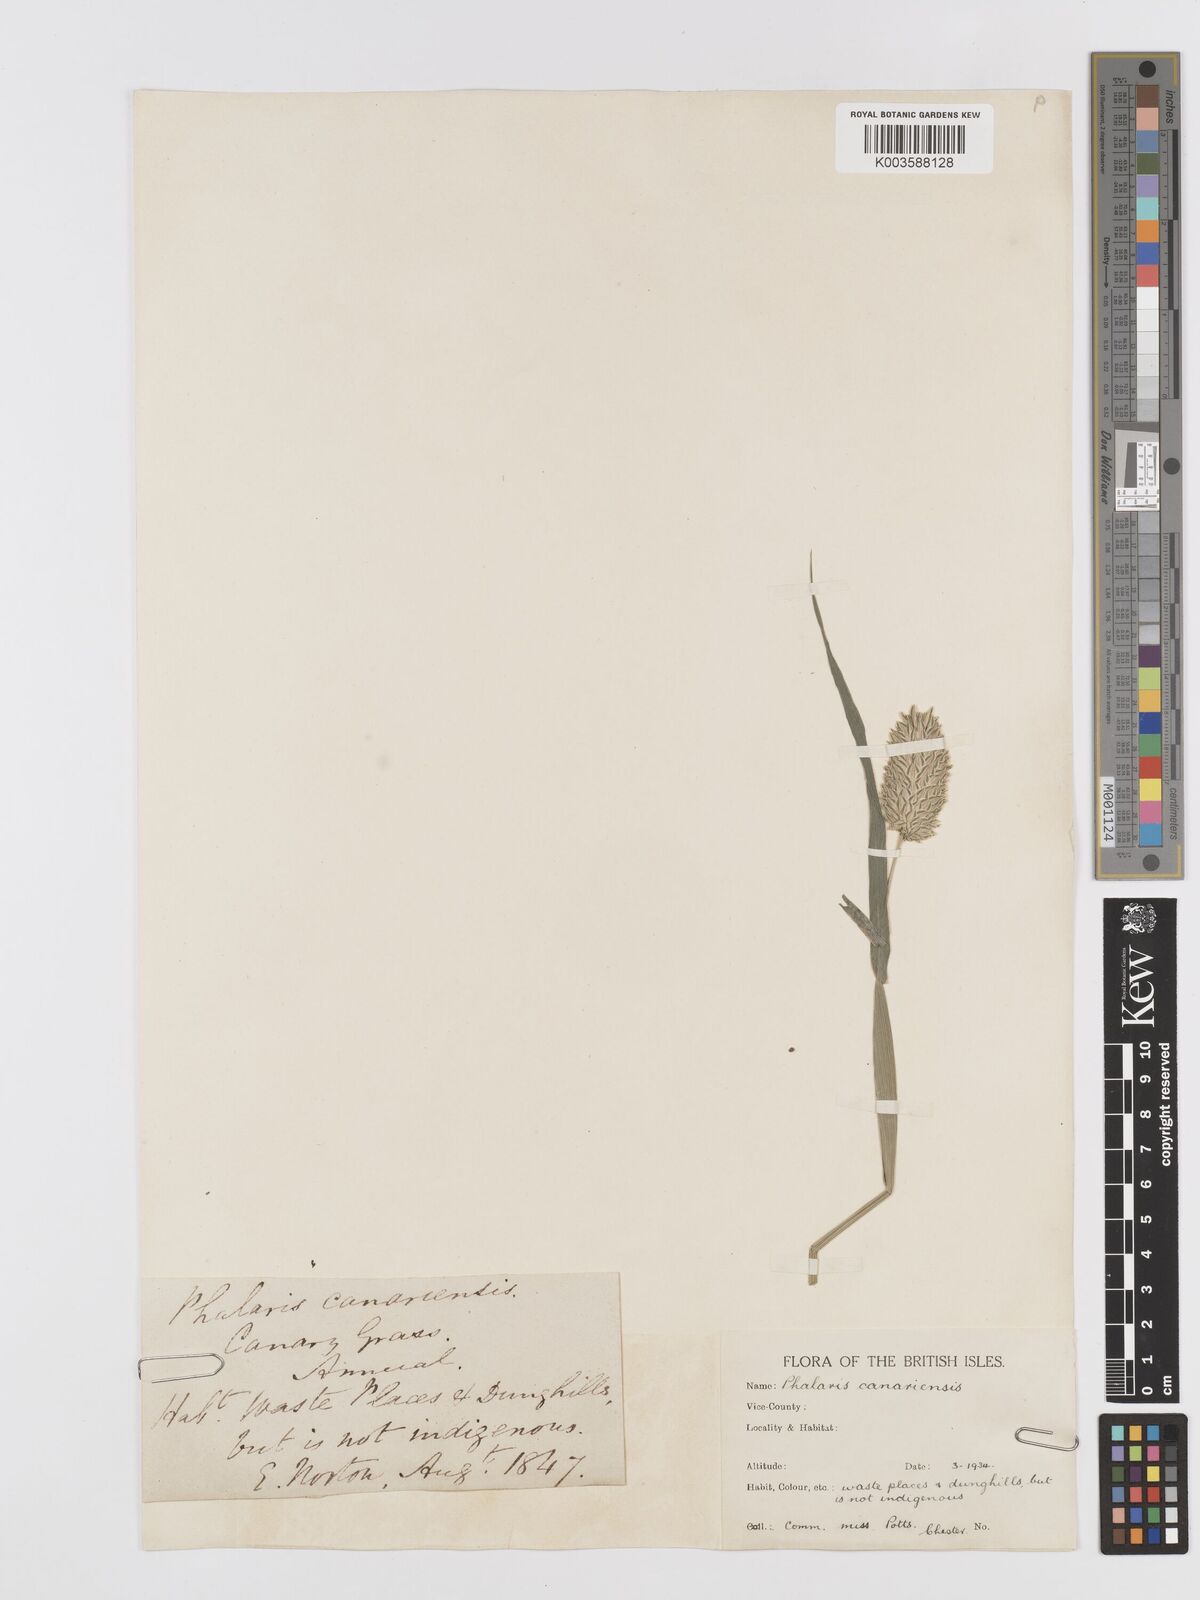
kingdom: Plantae
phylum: Tracheophyta
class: Liliopsida
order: Poales
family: Poaceae
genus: Phalaris
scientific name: Phalaris canariensis
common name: Annual canarygrass
